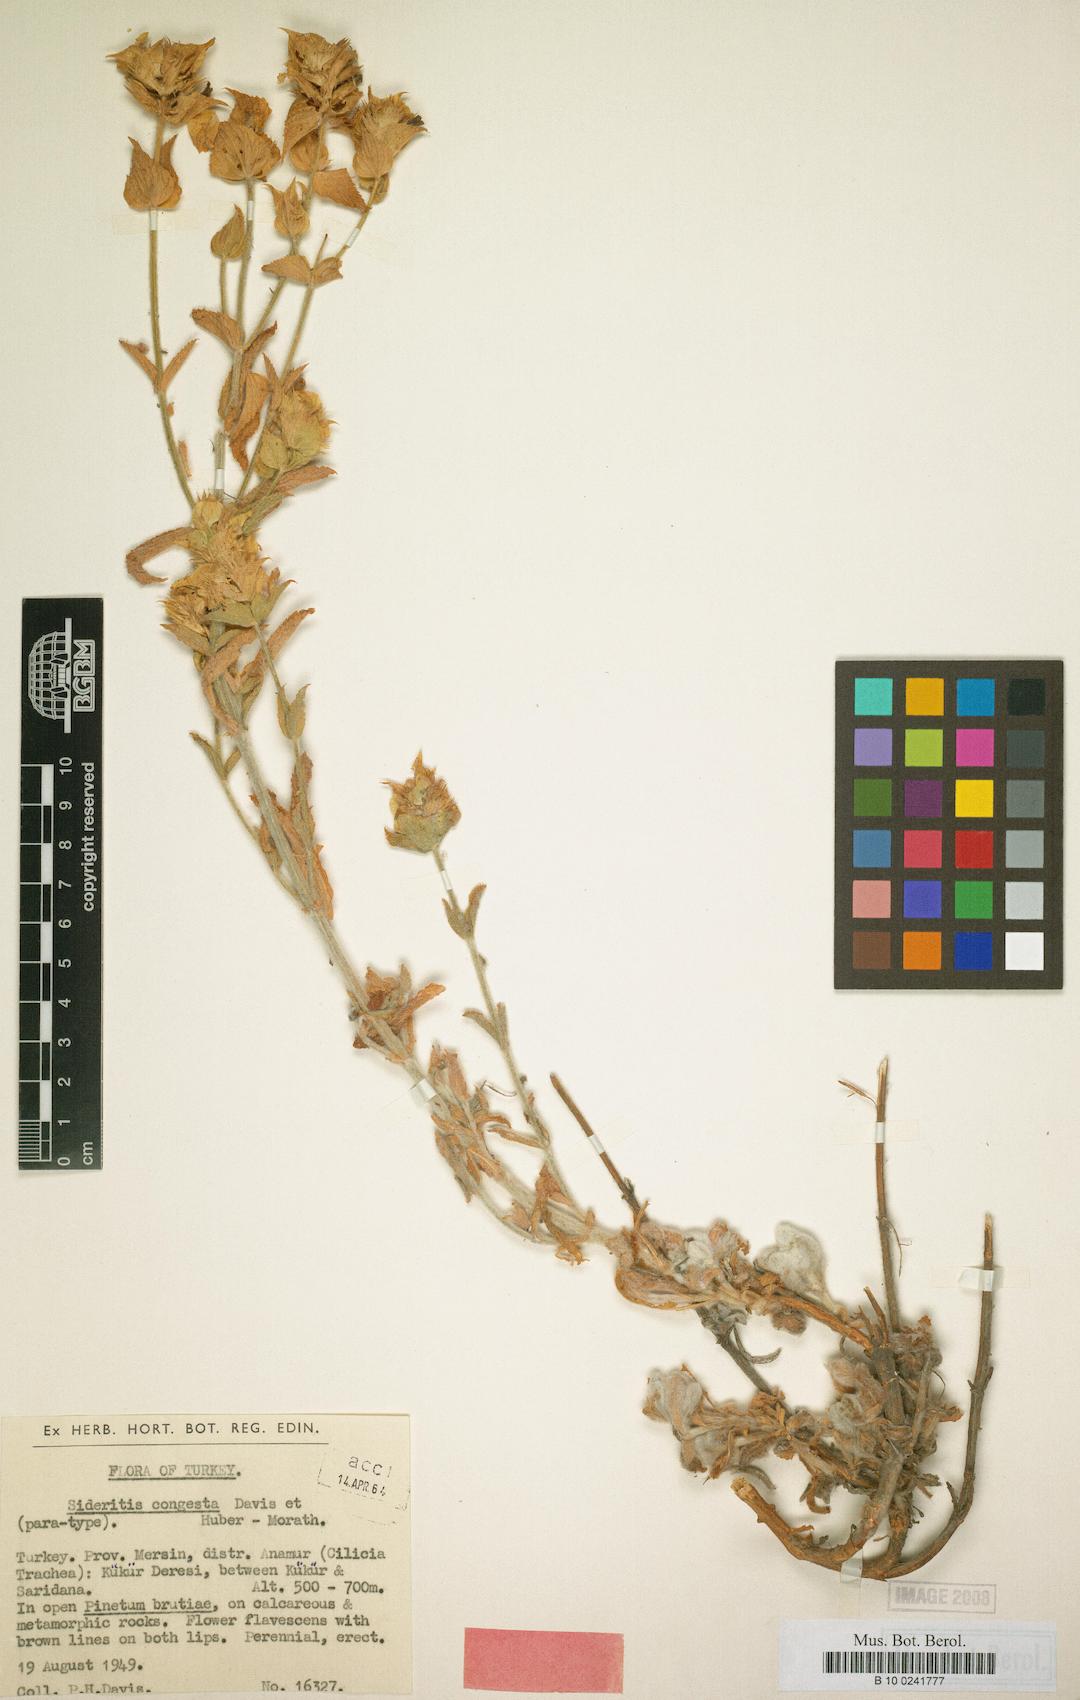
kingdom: Plantae
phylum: Tracheophyta
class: Magnoliopsida
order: Lamiales
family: Lamiaceae
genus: Sideritis
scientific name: Sideritis congesta
